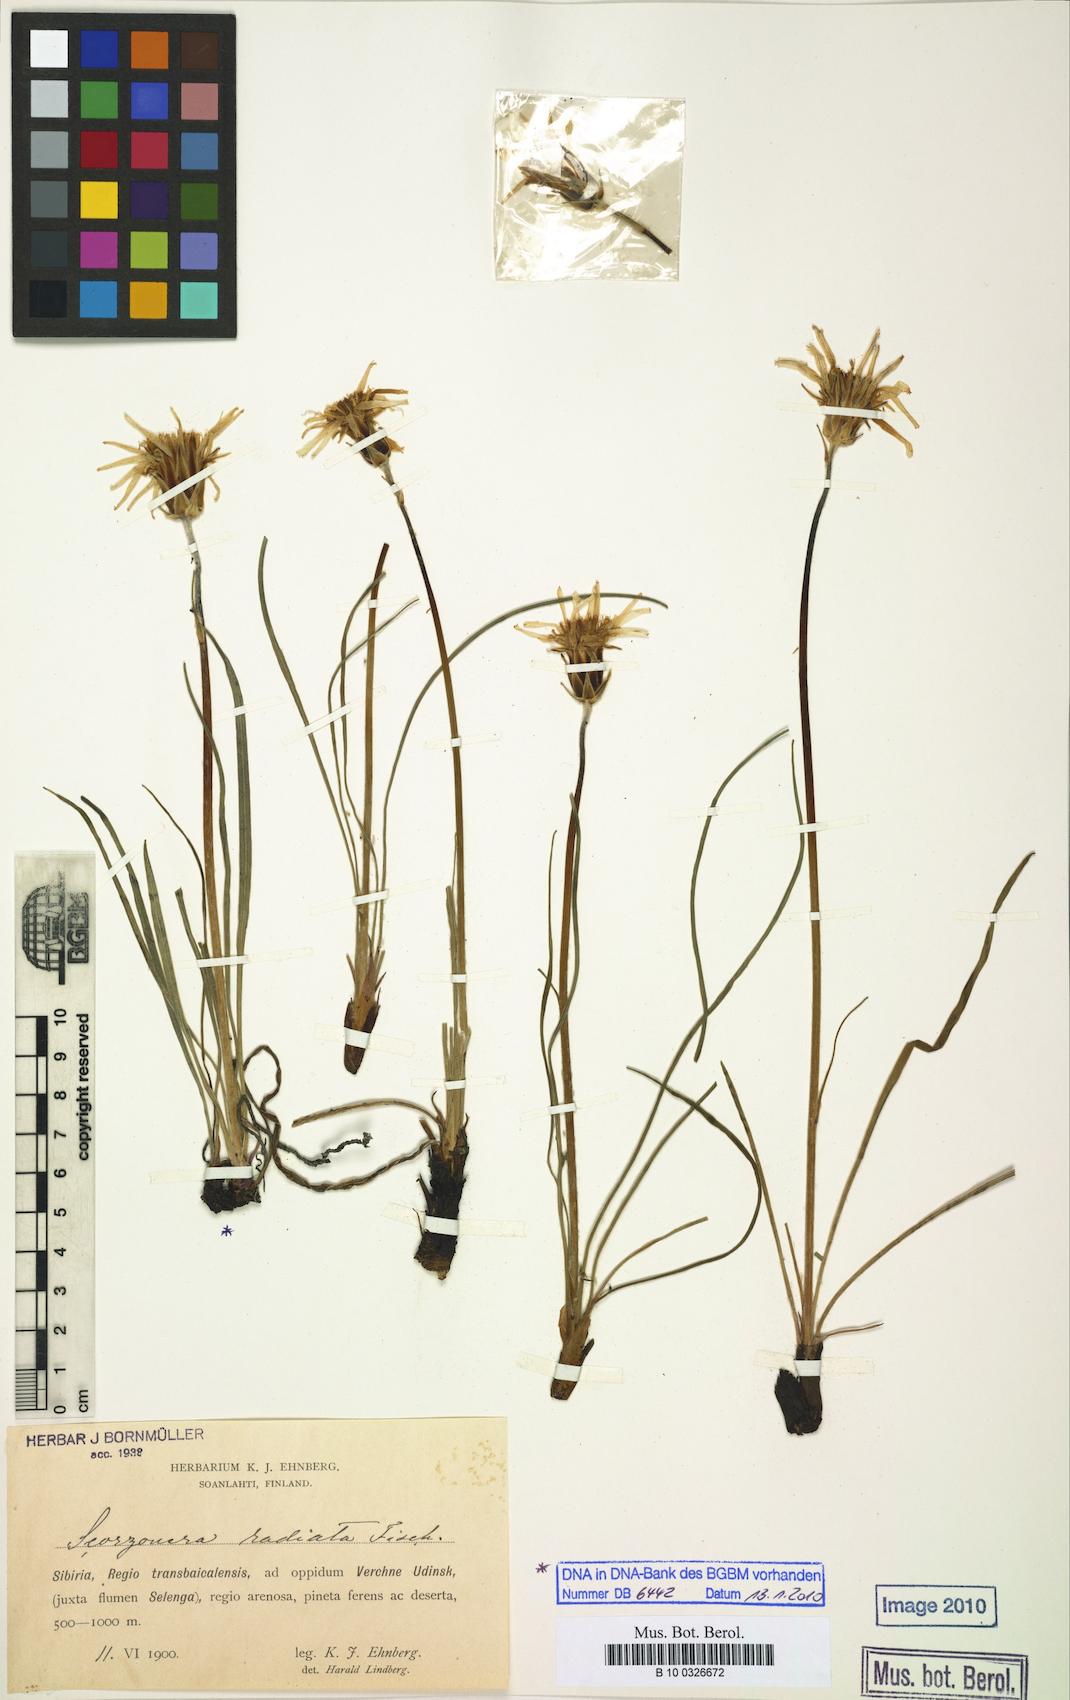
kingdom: Plantae
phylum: Tracheophyta
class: Magnoliopsida
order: Asterales
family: Asteraceae
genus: Scorzonera
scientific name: Scorzonera radiata
